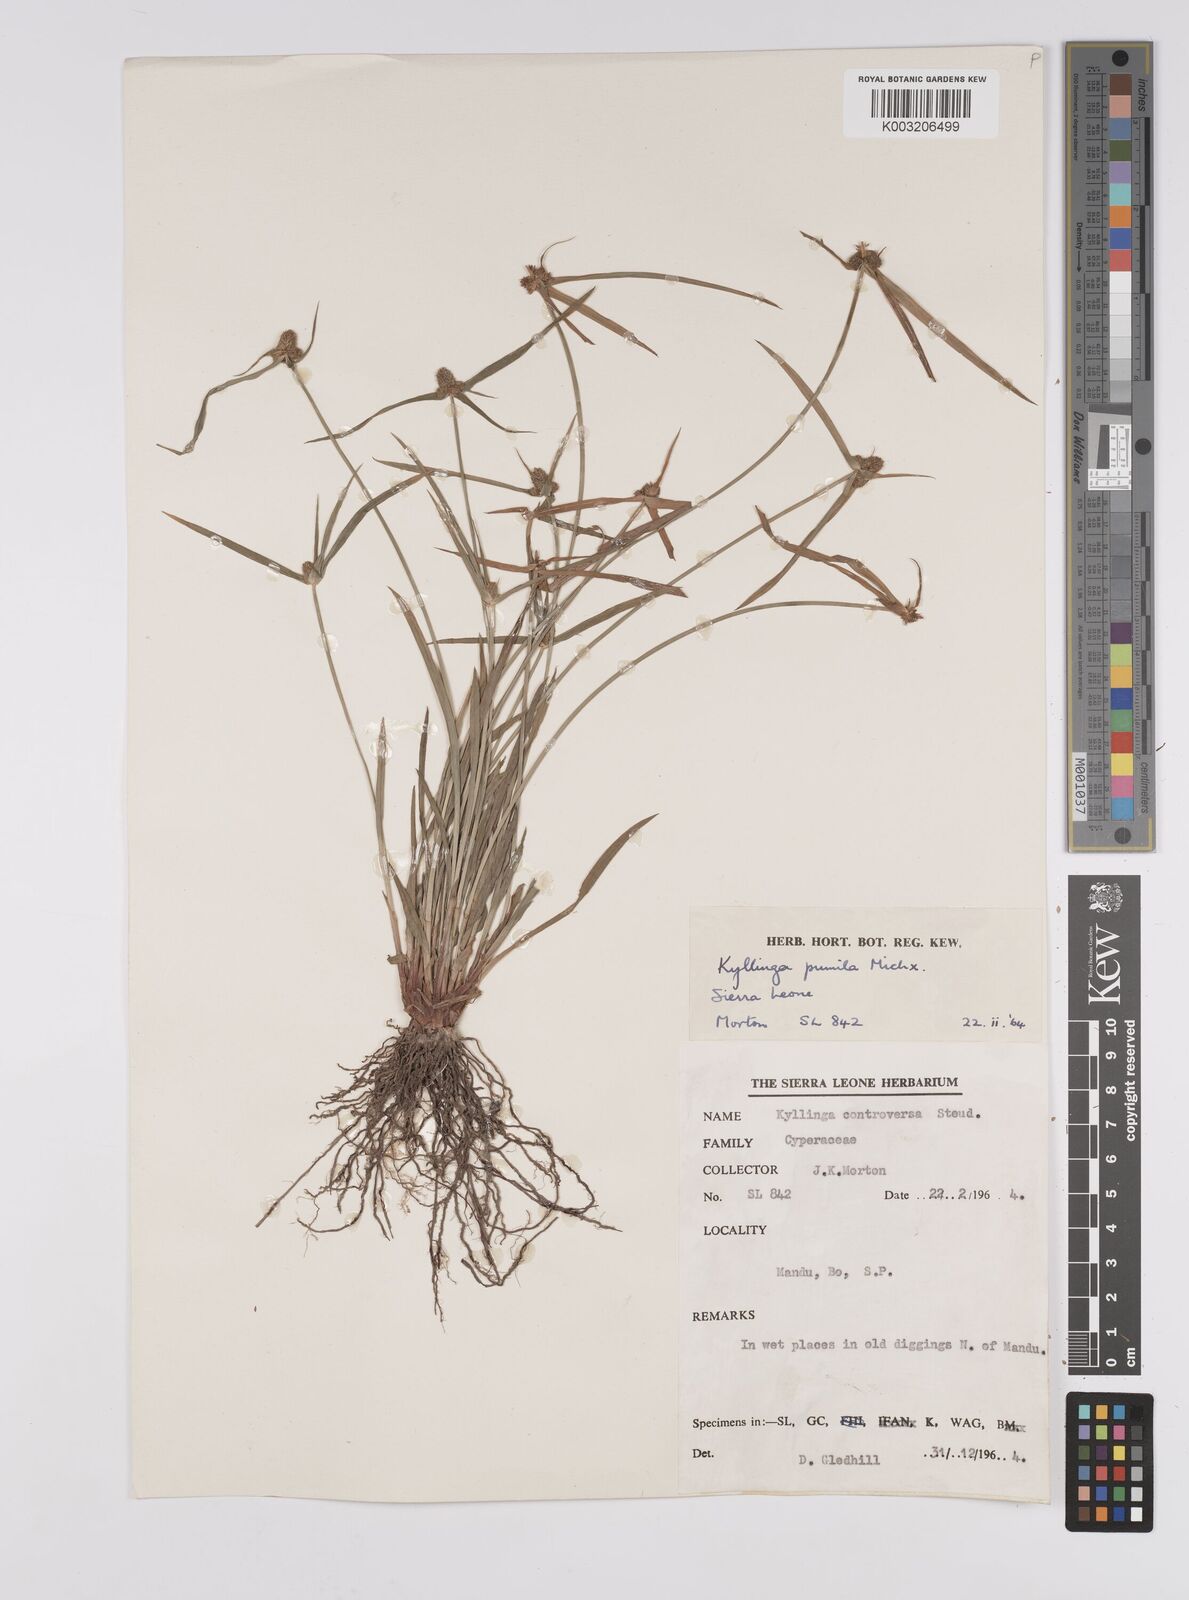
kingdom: Plantae
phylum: Tracheophyta
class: Liliopsida
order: Poales
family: Cyperaceae
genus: Cyperus
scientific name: Cyperus
